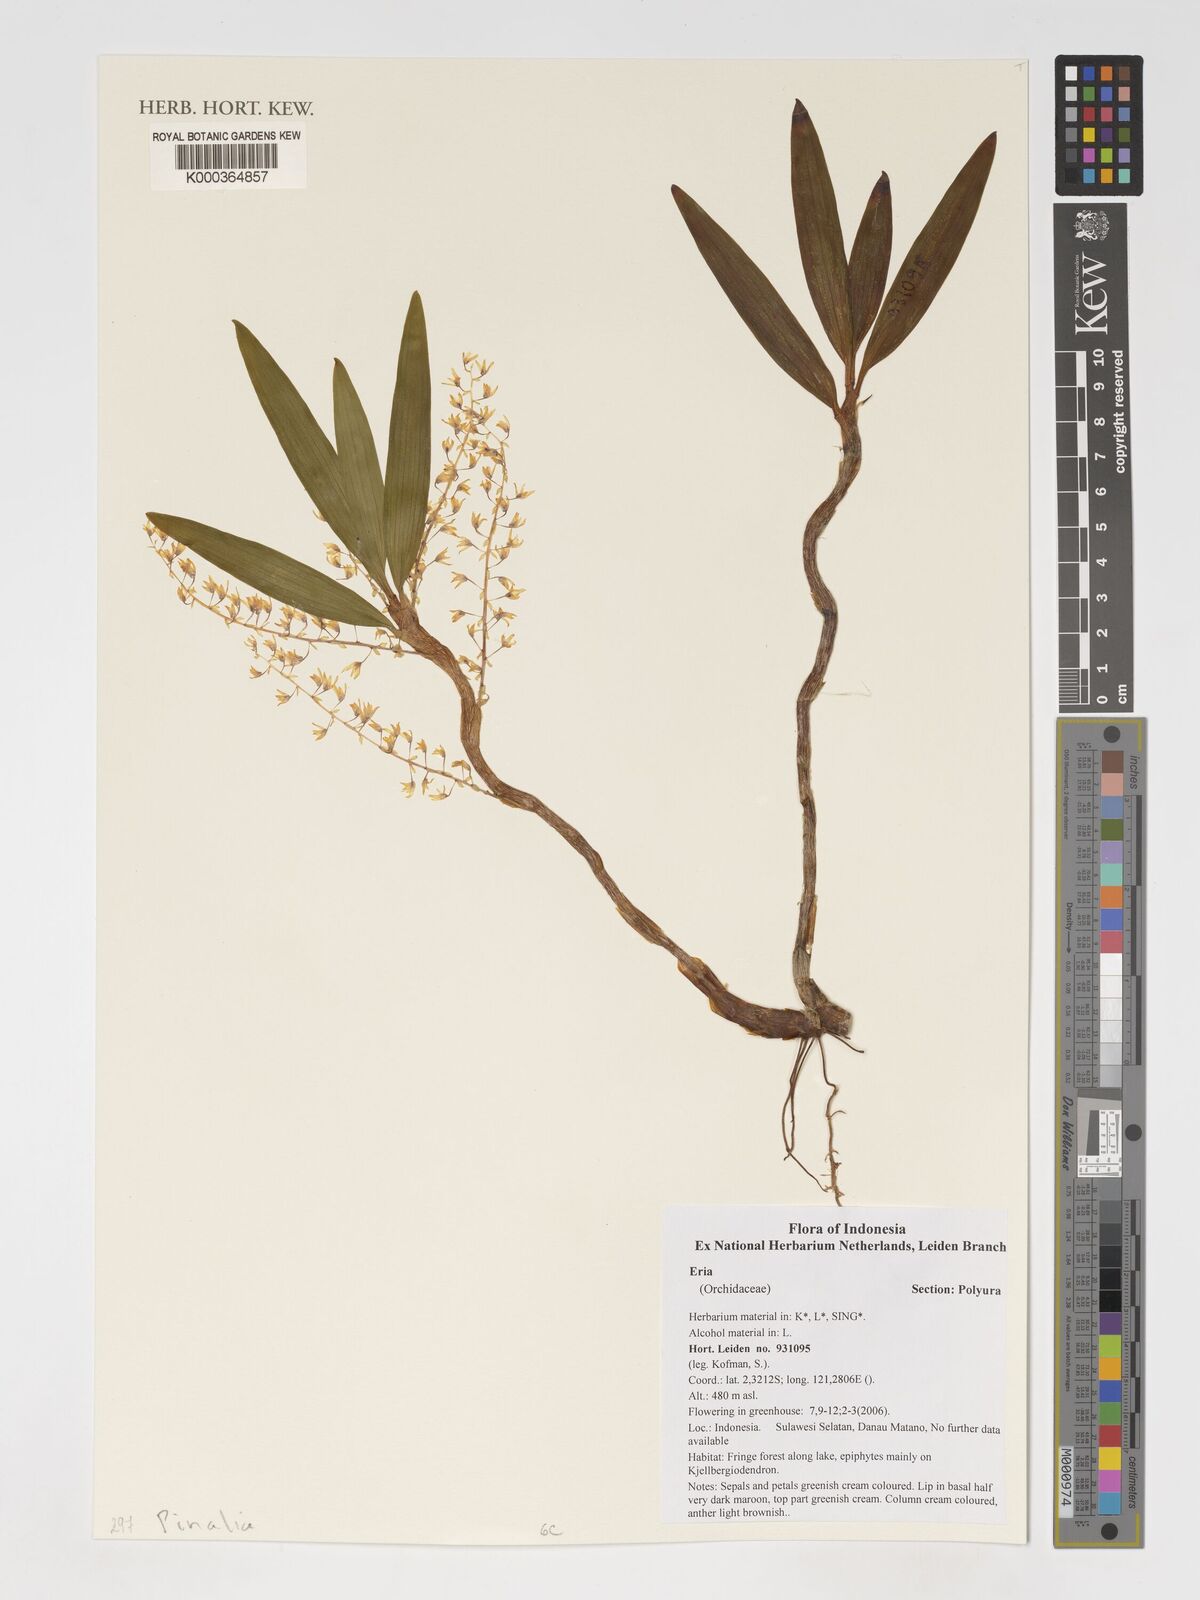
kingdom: Plantae
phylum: Tracheophyta
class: Liliopsida
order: Asparagales
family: Orchidaceae
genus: Eria
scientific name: Eria
